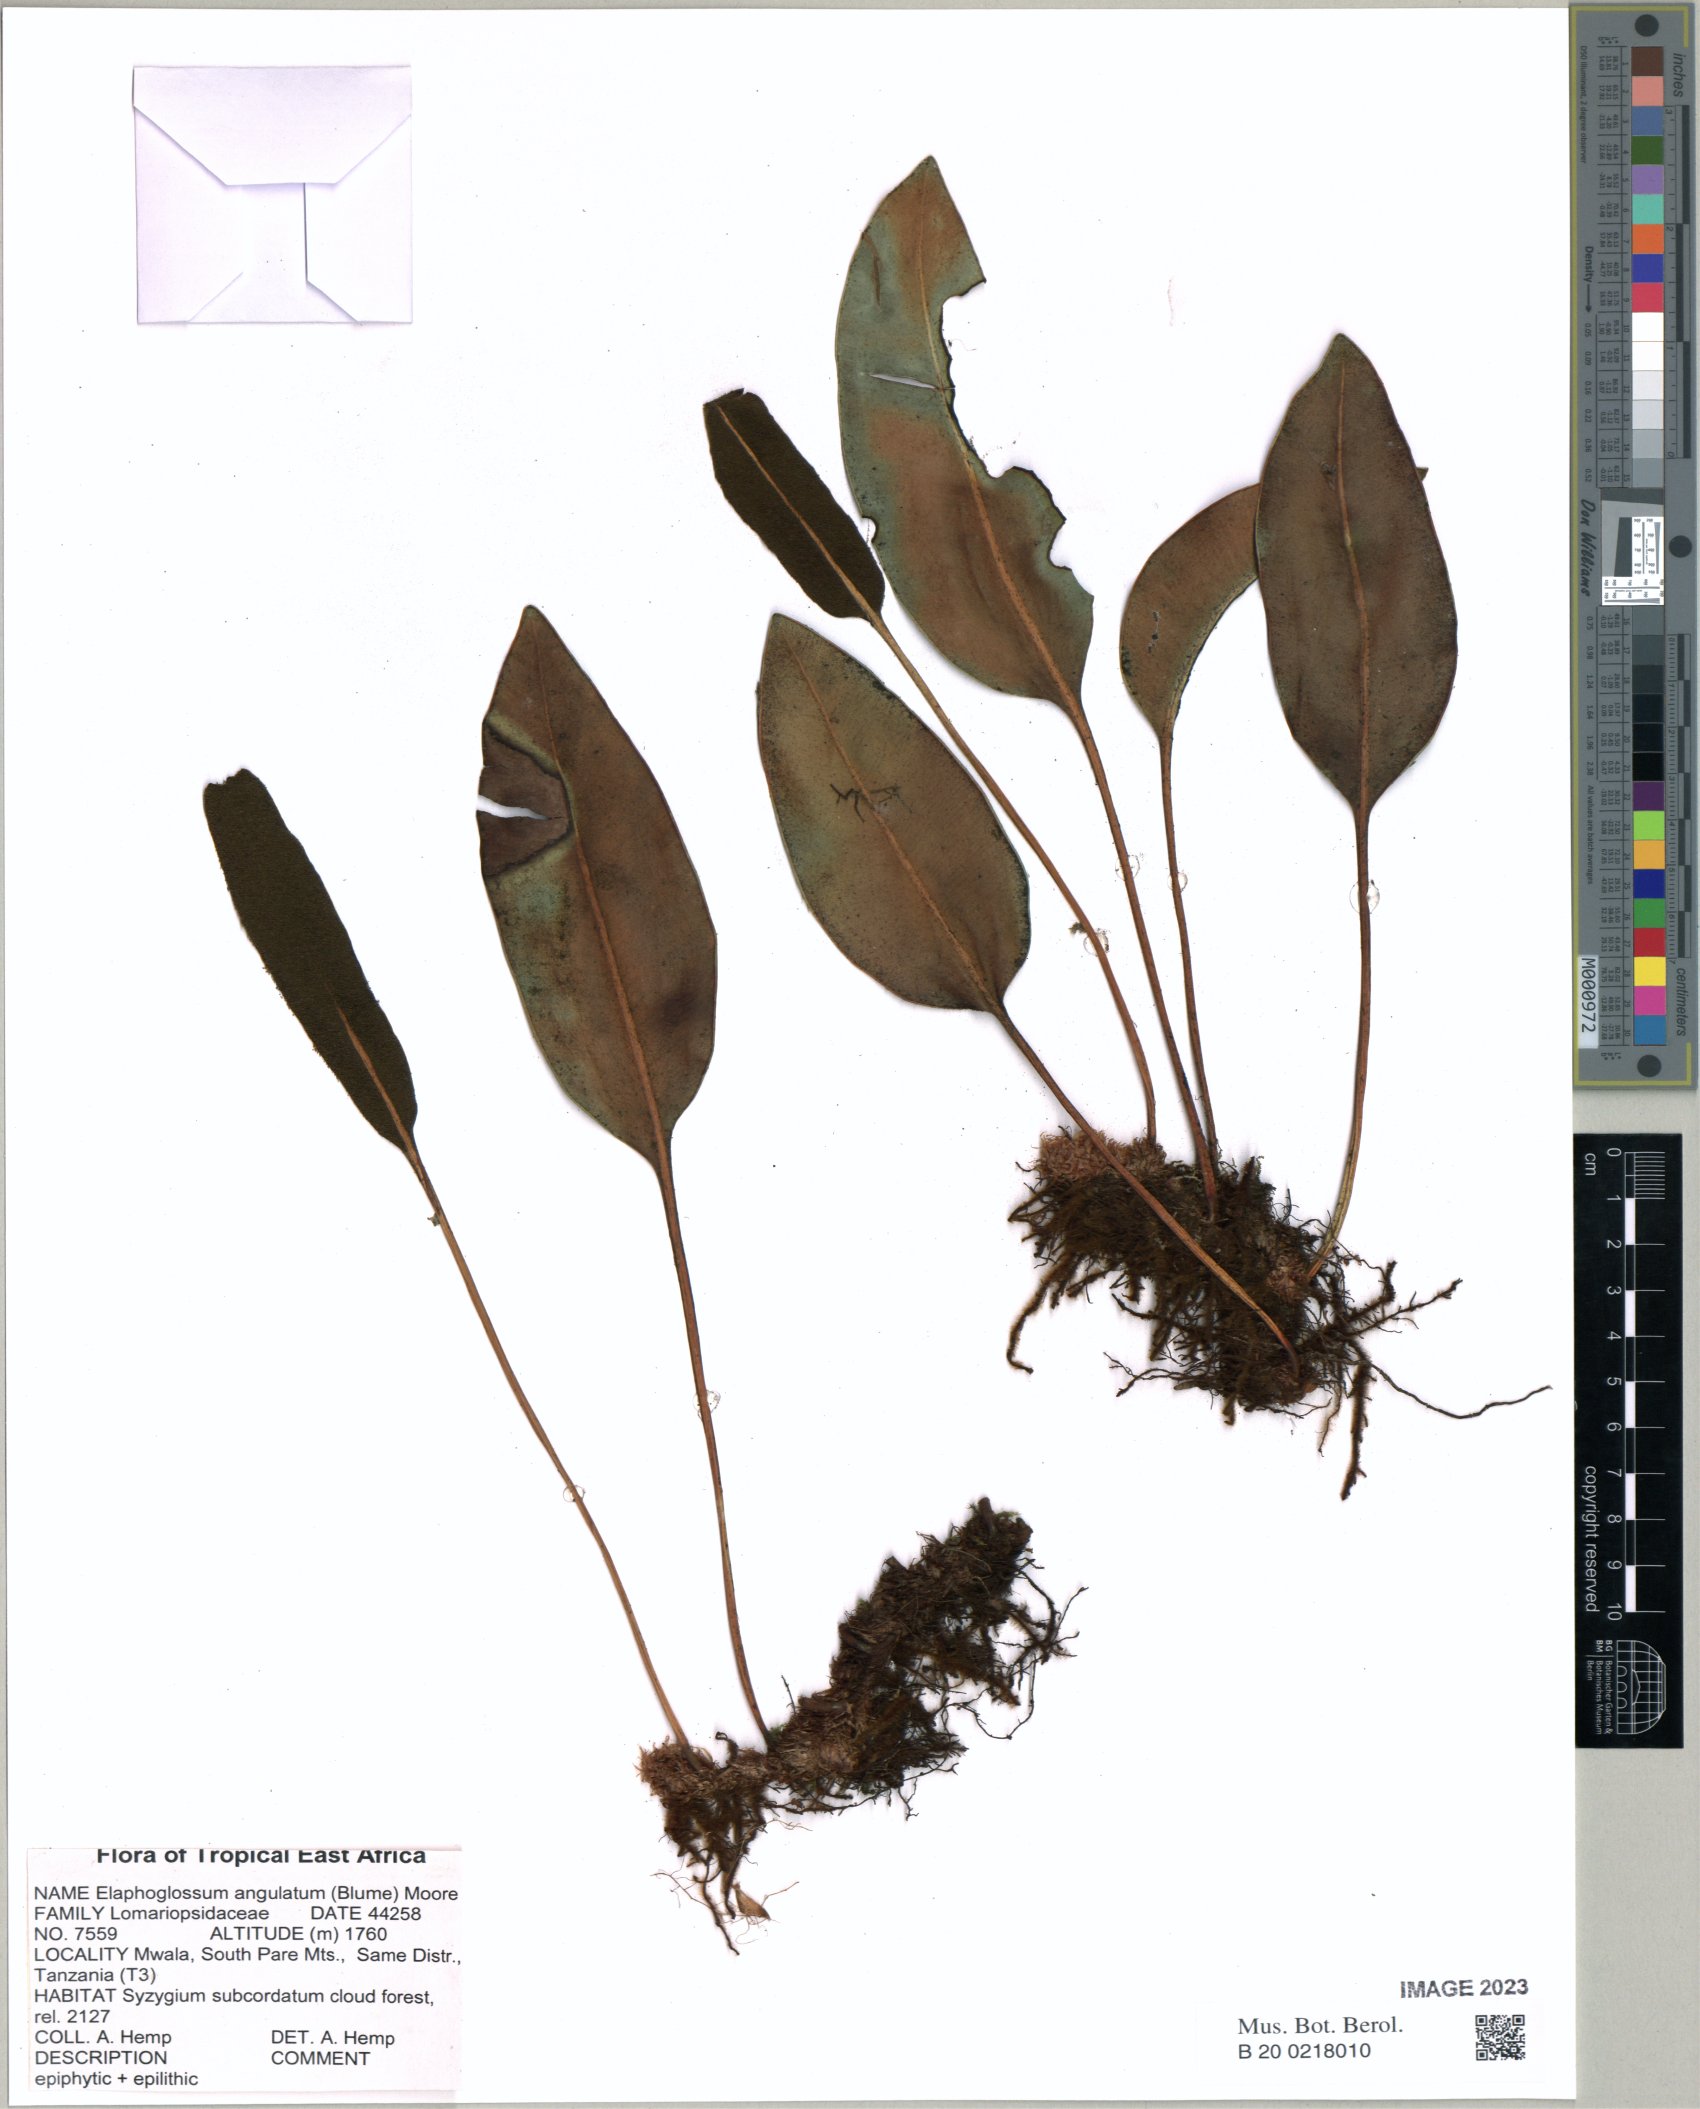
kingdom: Plantae
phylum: Tracheophyta
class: Polypodiopsida
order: Polypodiales
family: Dryopteridaceae
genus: Elaphoglossum
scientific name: Elaphoglossum angulatum
